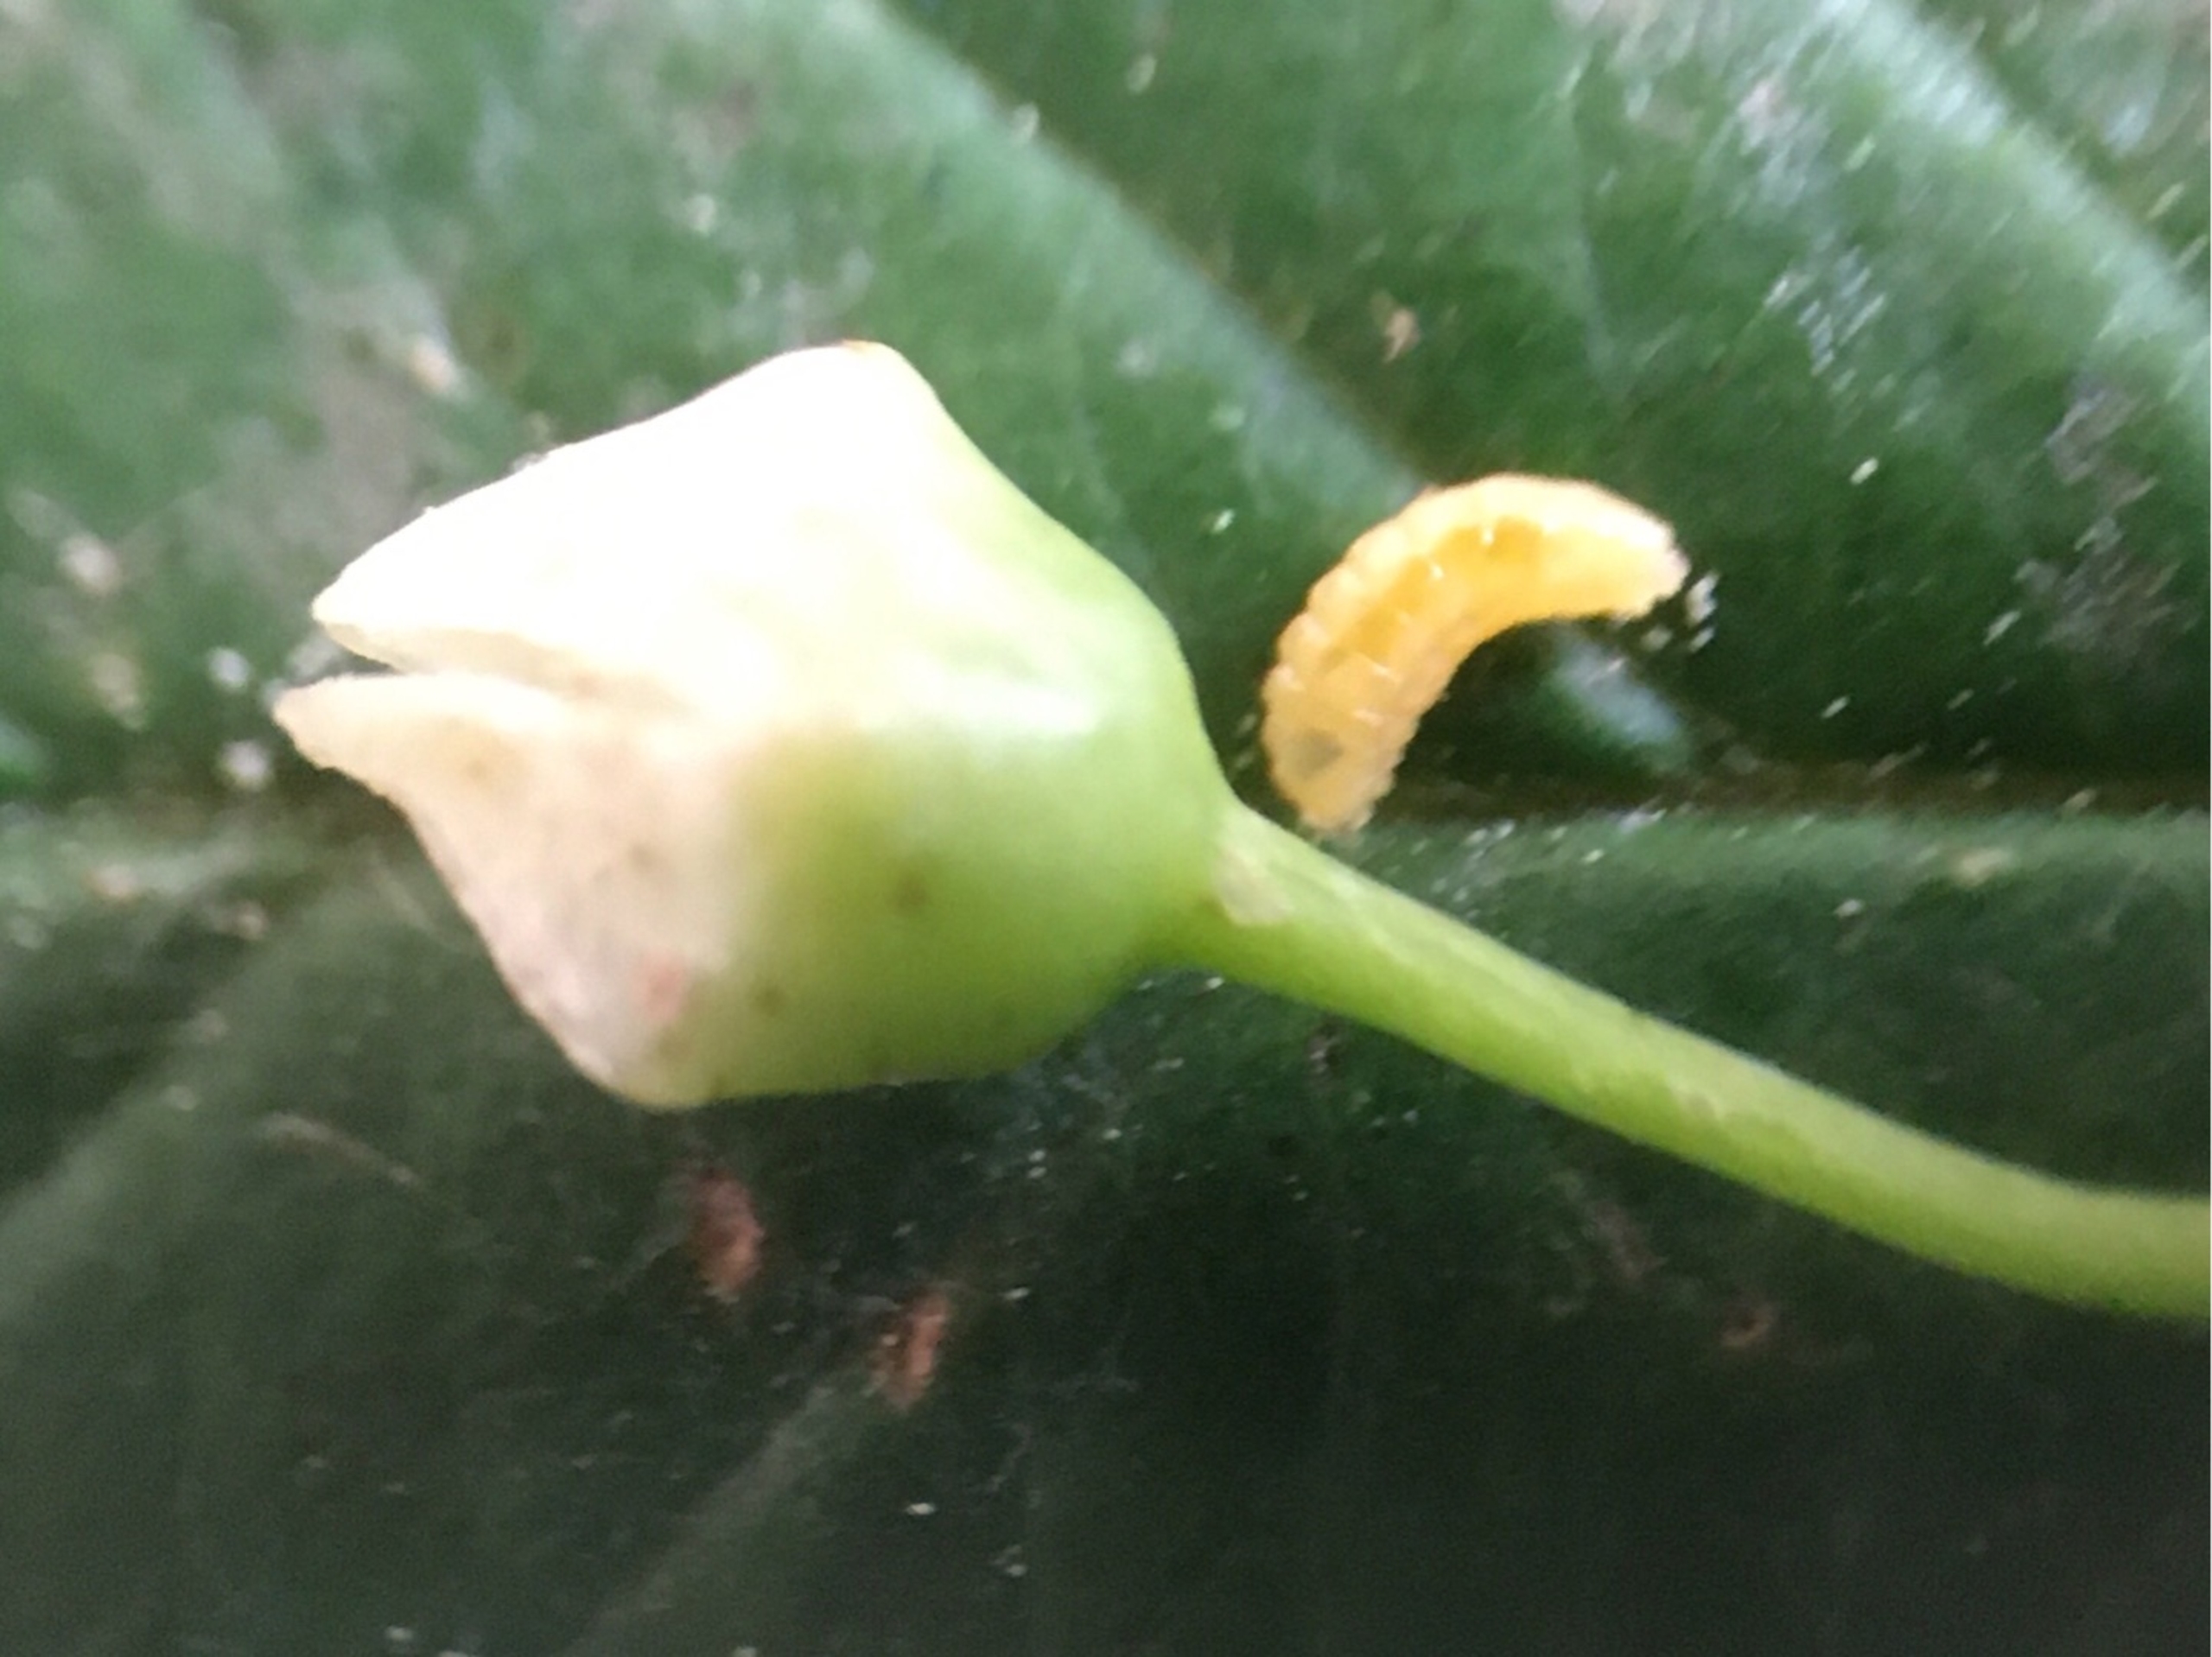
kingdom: Animalia
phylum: Arthropoda
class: Insecta
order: Diptera
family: Cecidomyiidae
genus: Contarinia
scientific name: Contarinia rhamni
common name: Tørstegalmyg
